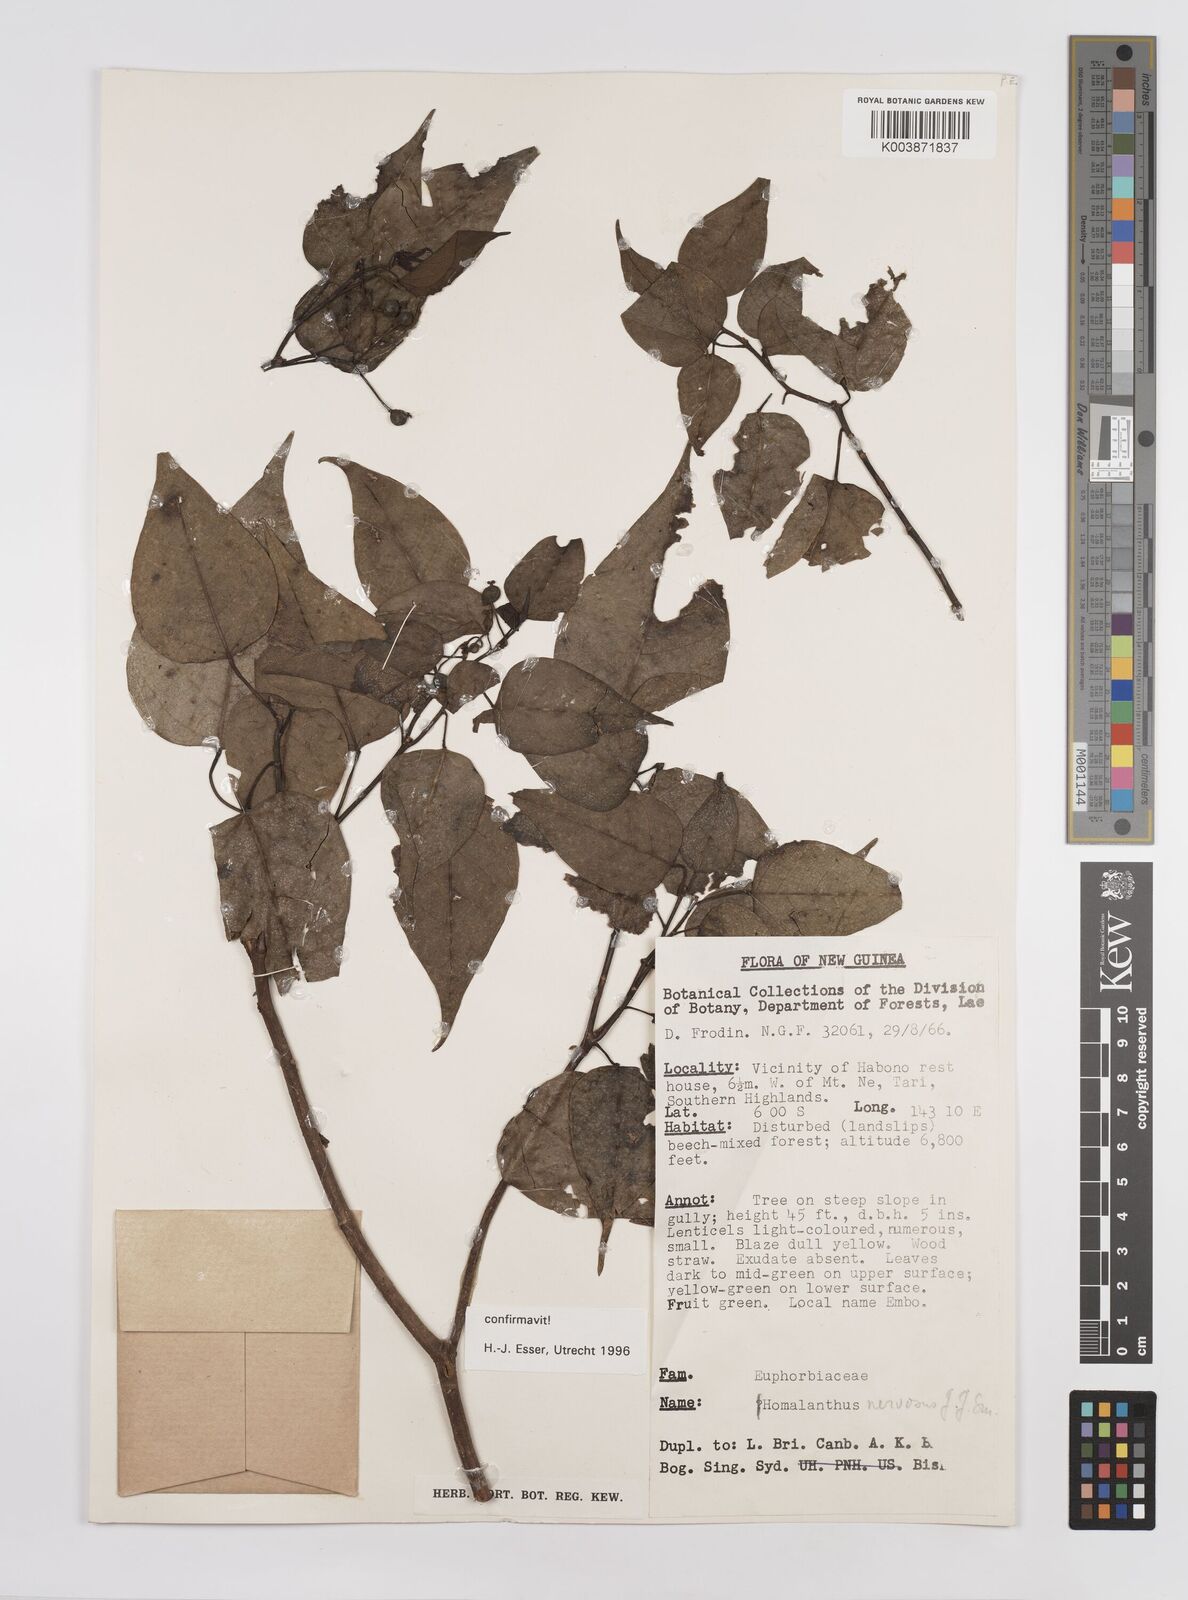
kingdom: Plantae
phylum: Tracheophyta
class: Magnoliopsida
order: Malpighiales
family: Euphorbiaceae
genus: Homalanthus
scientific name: Homalanthus nervosus
